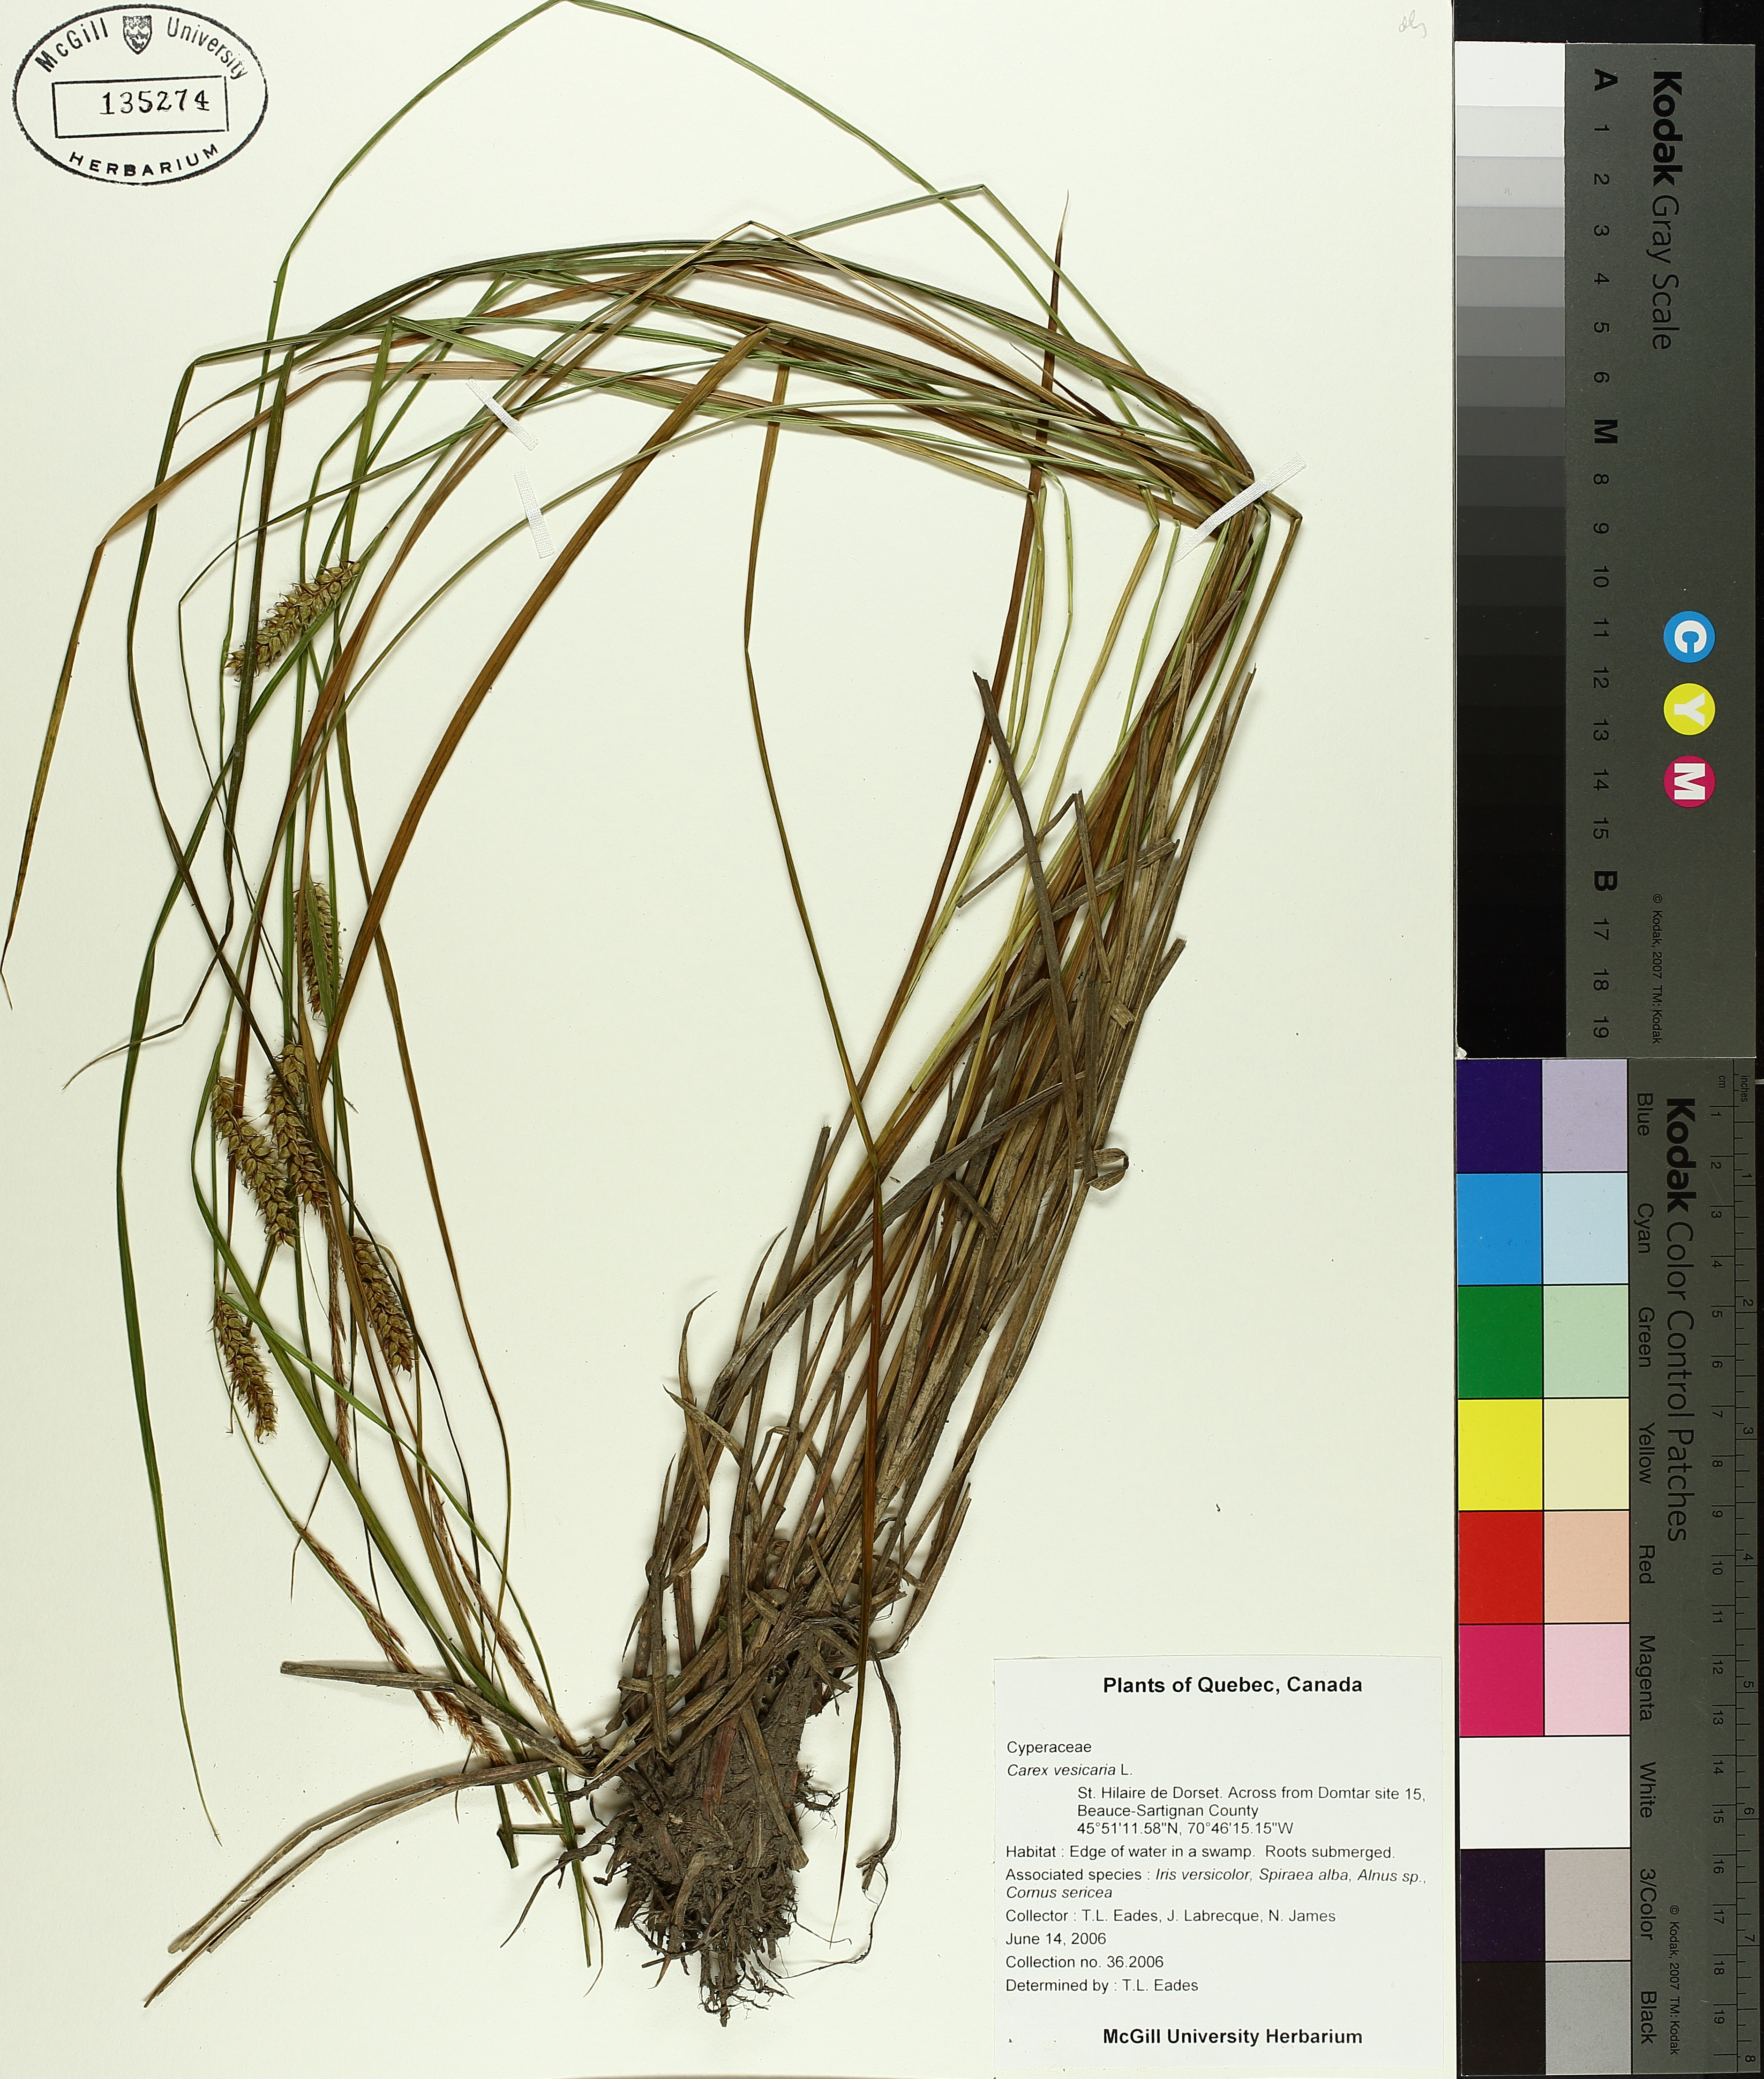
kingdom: Plantae
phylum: Tracheophyta
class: Liliopsida
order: Poales
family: Cyperaceae
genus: Carex
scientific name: Carex vesicaria
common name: Bladder-sedge
